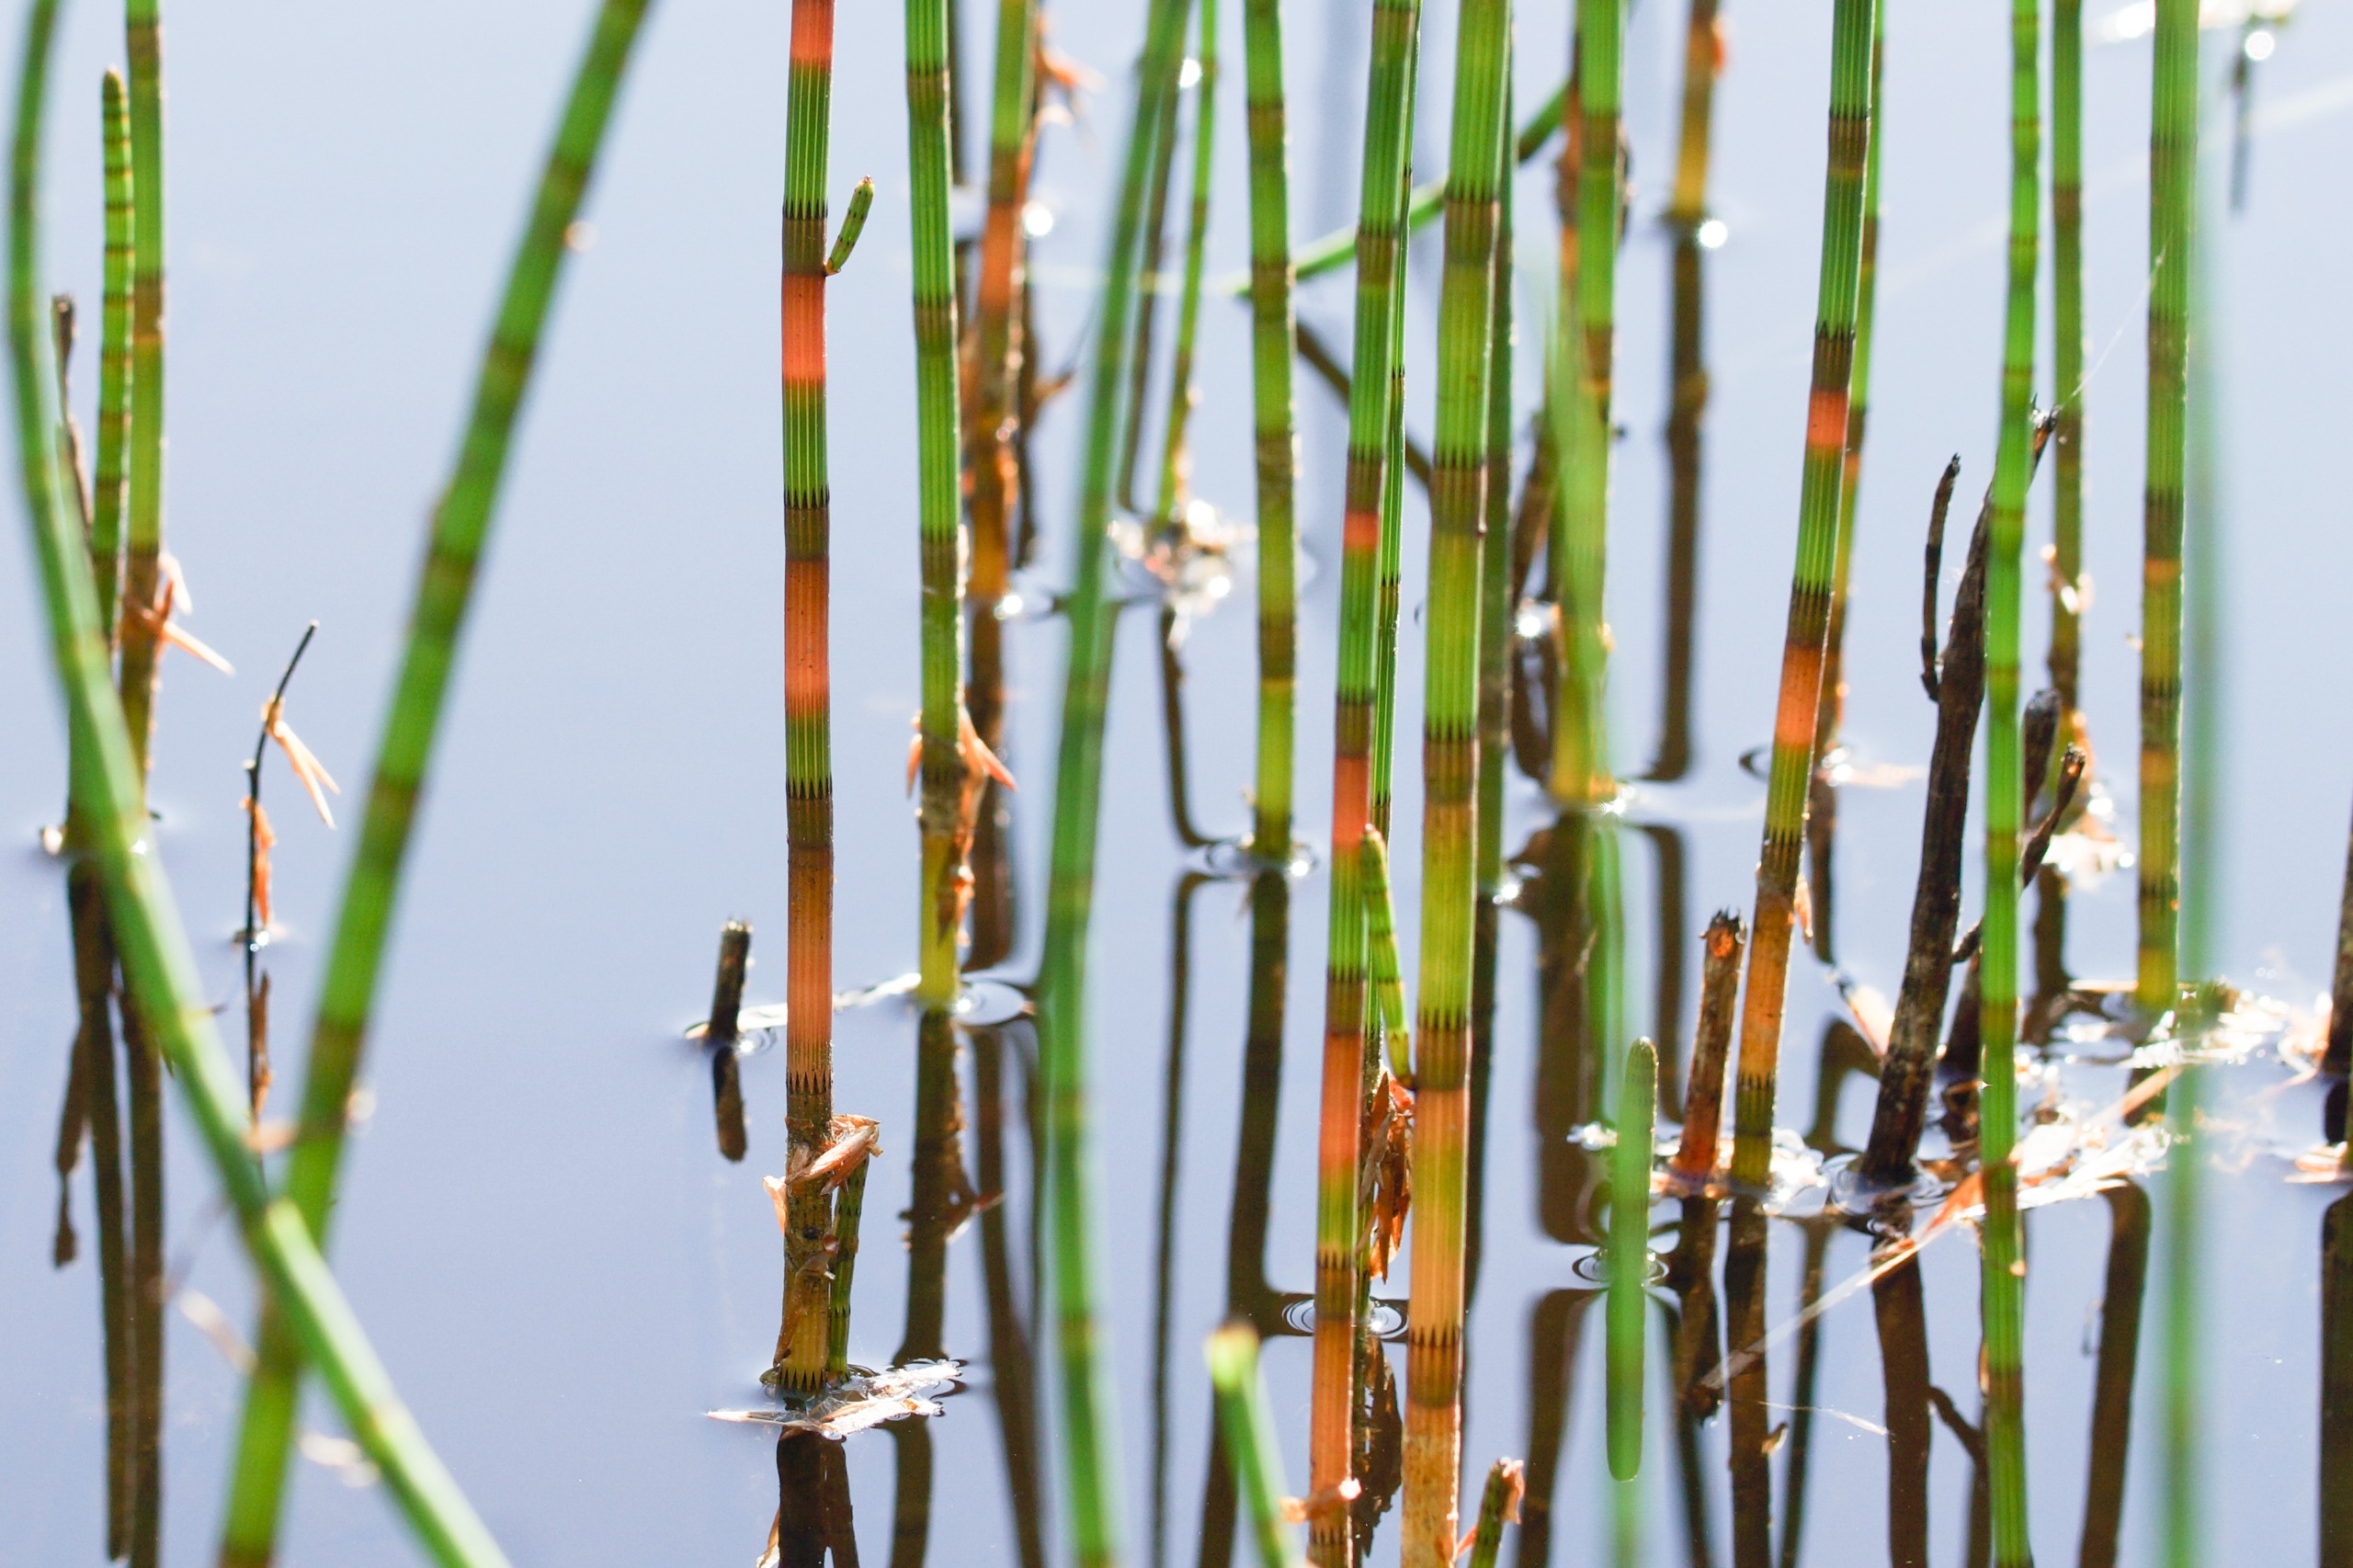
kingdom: Plantae
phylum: Tracheophyta
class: Polypodiopsida
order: Equisetales
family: Equisetaceae
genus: Equisetum
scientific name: Equisetum fluviatile
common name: Dynd-padderok
